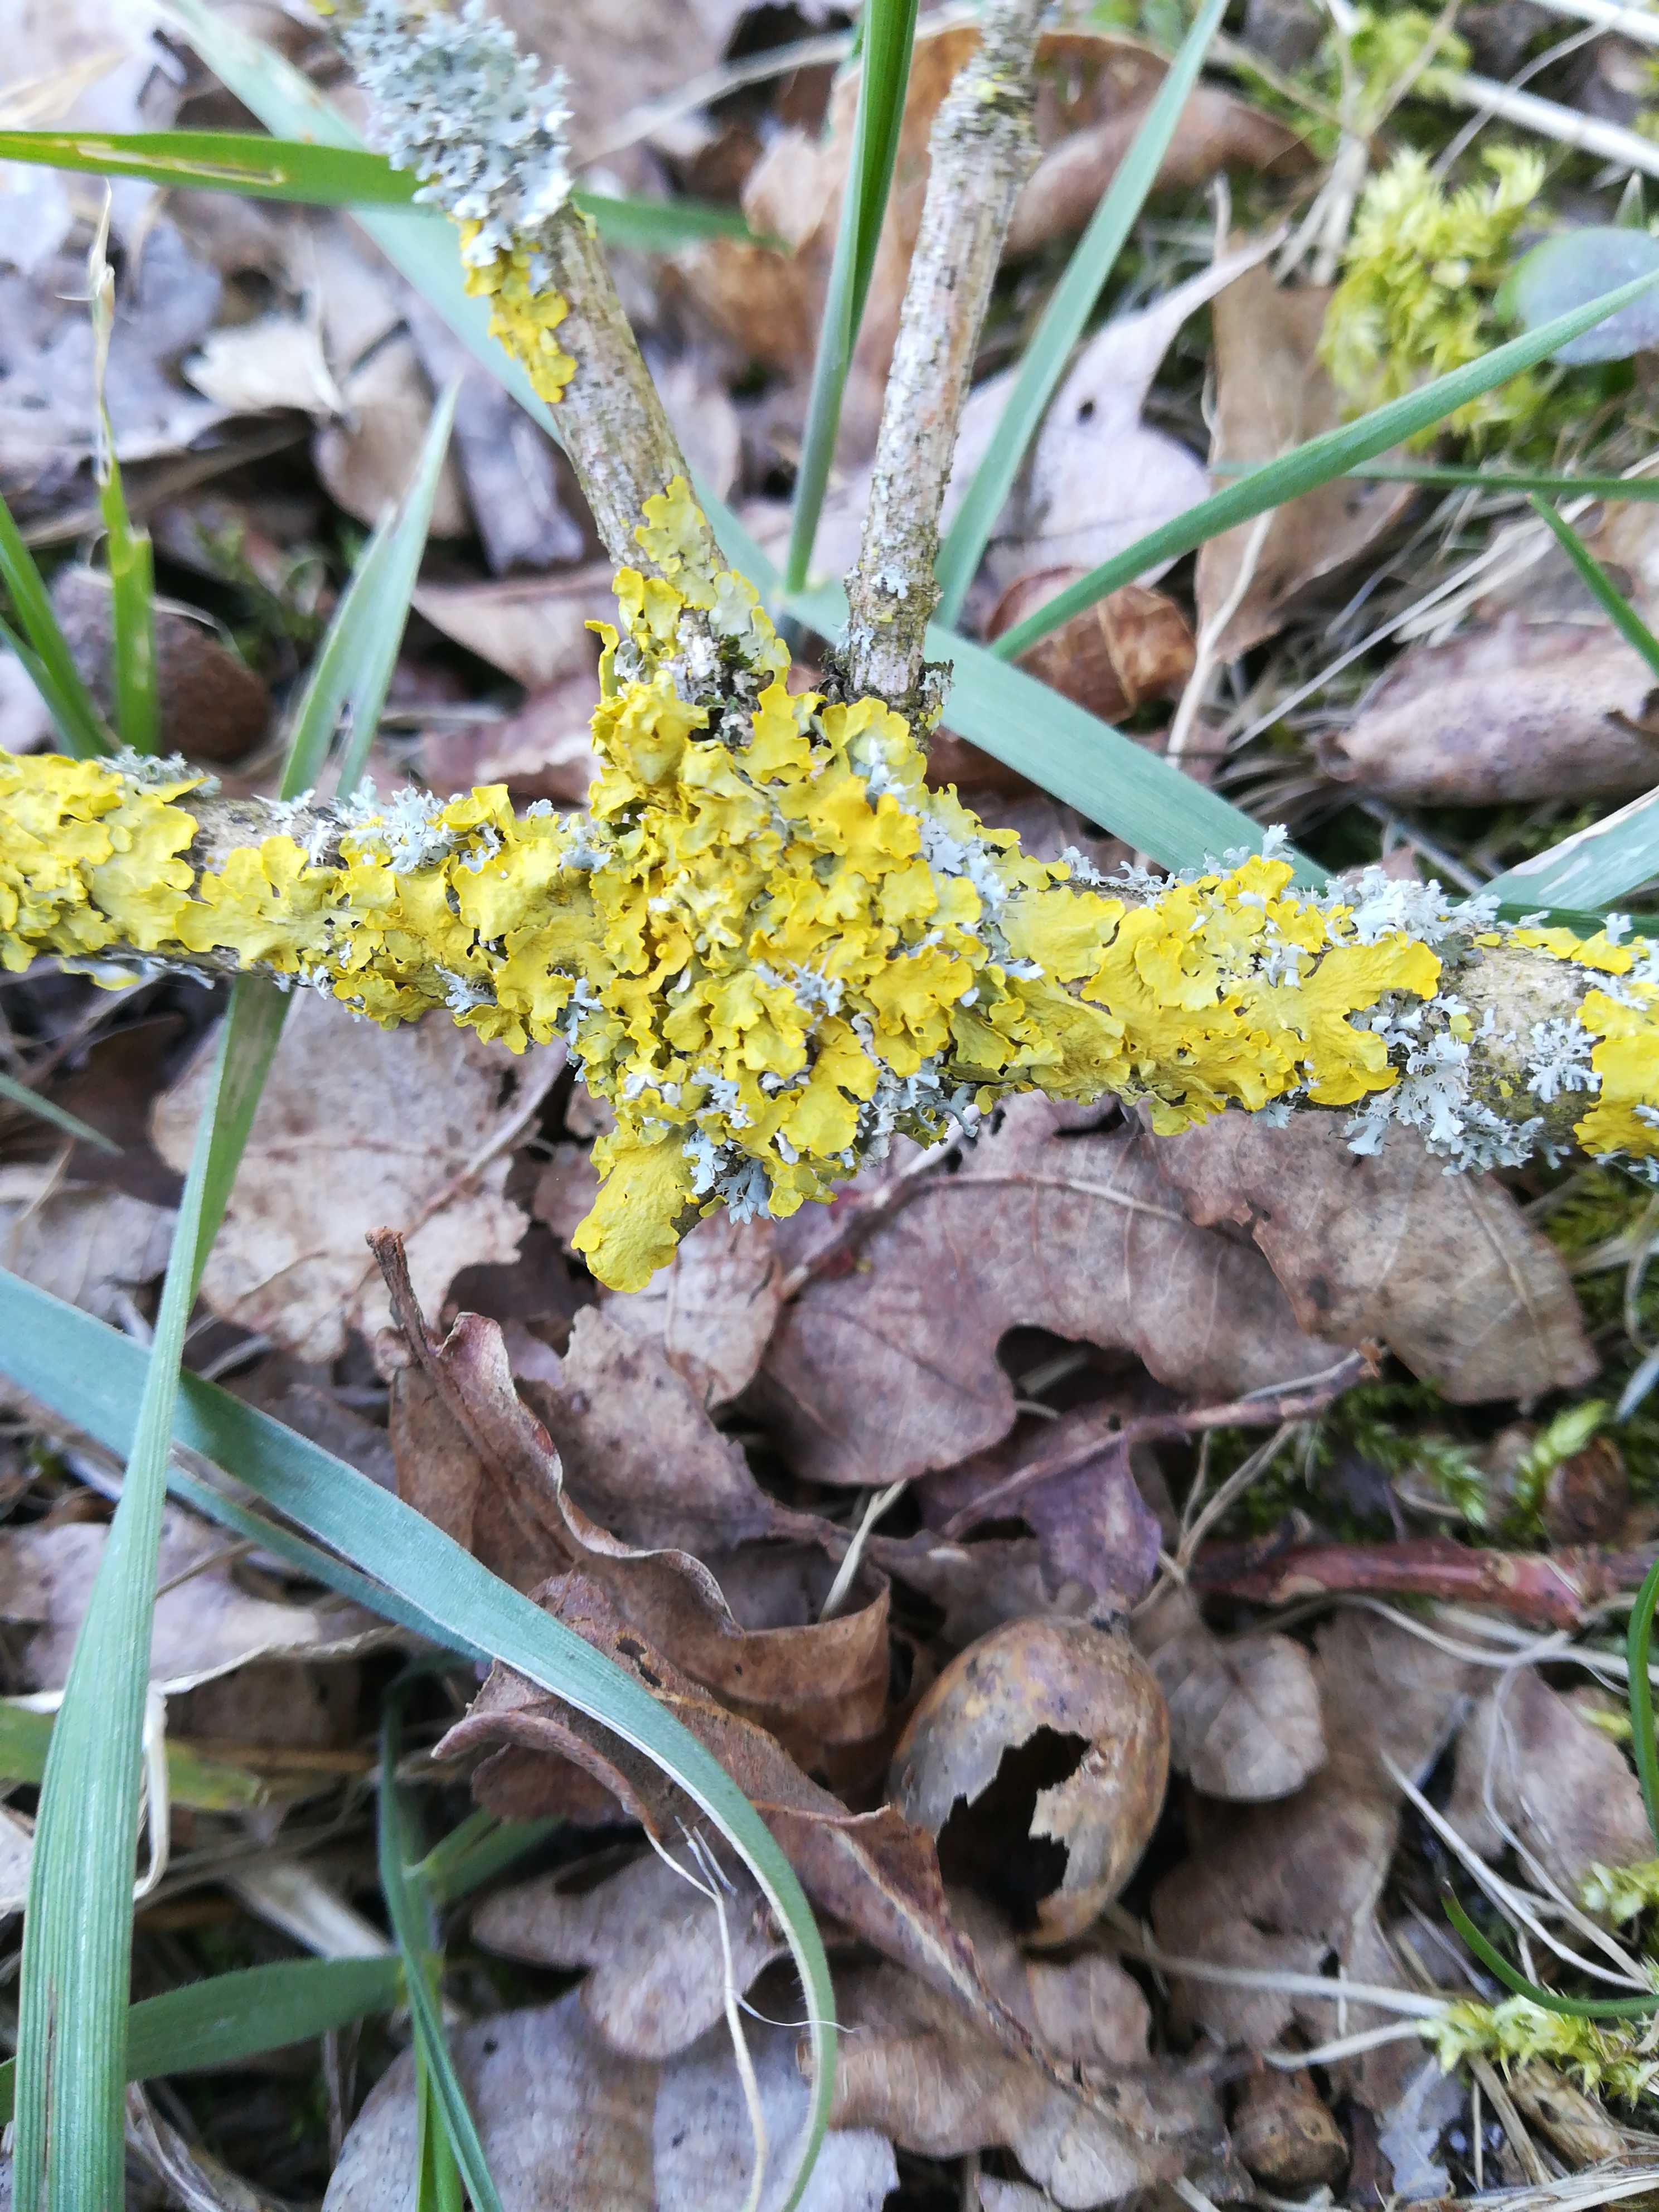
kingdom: Fungi
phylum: Ascomycota
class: Lecanoromycetes
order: Teloschistales
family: Teloschistaceae
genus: Xanthoria
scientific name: Xanthoria parietina
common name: almindelig væggelav
